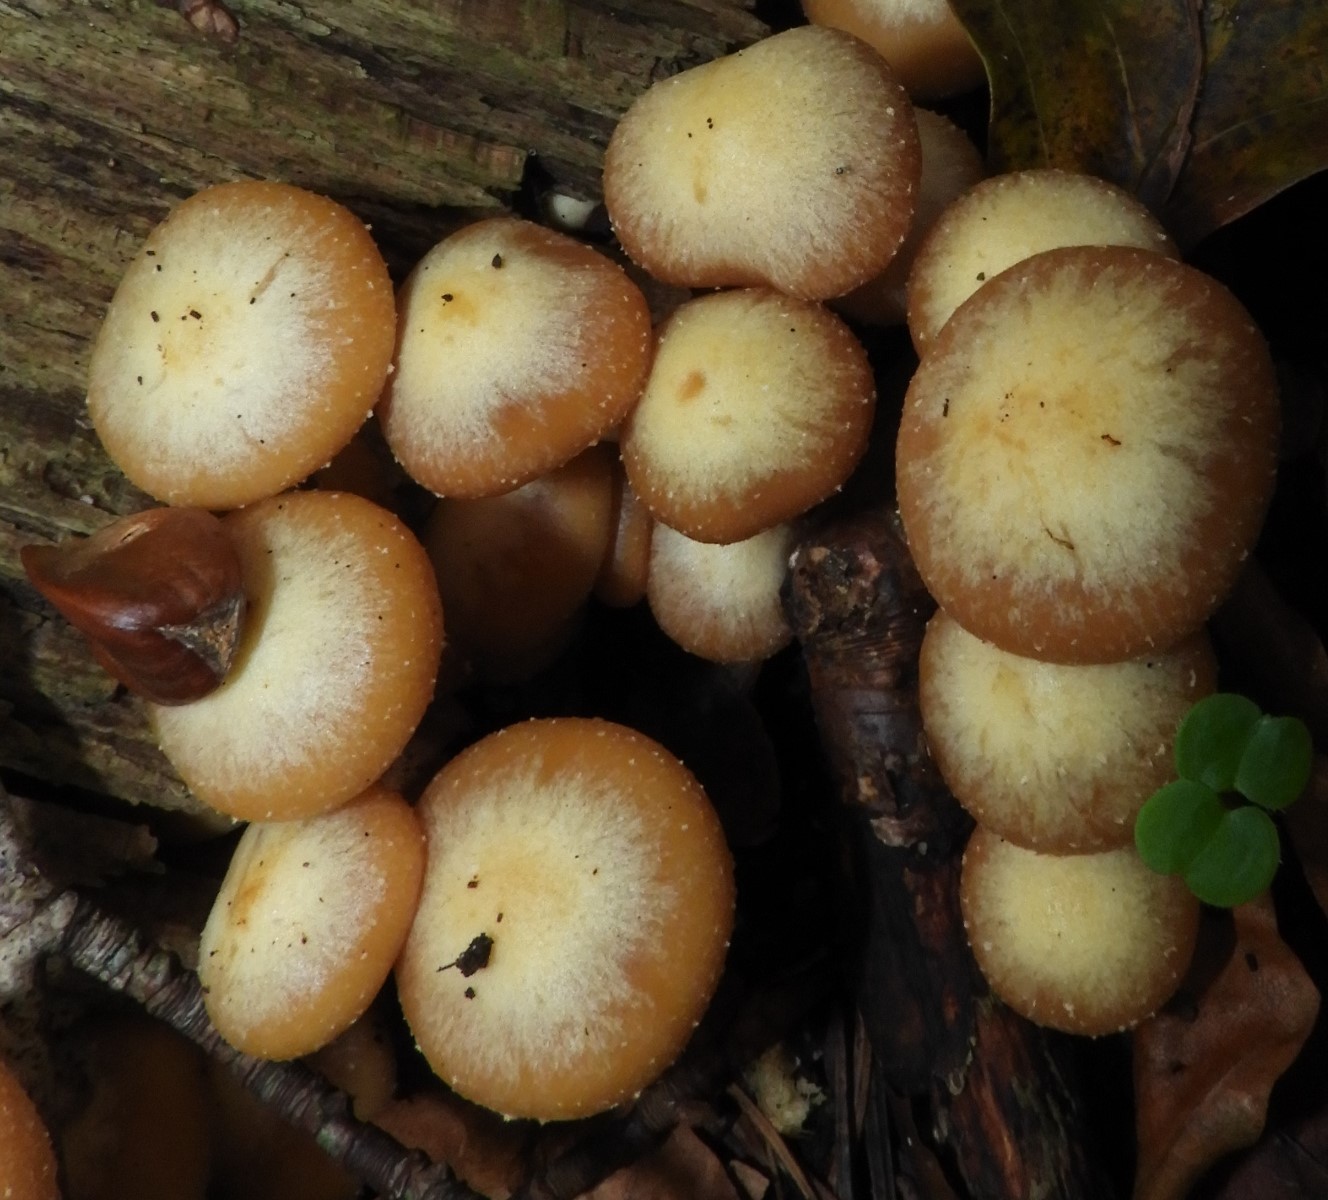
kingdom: Fungi
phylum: Basidiomycota
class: Agaricomycetes
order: Agaricales
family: Strophariaceae
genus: Kuehneromyces
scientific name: Kuehneromyces mutabilis
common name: foranderlig skælhat
